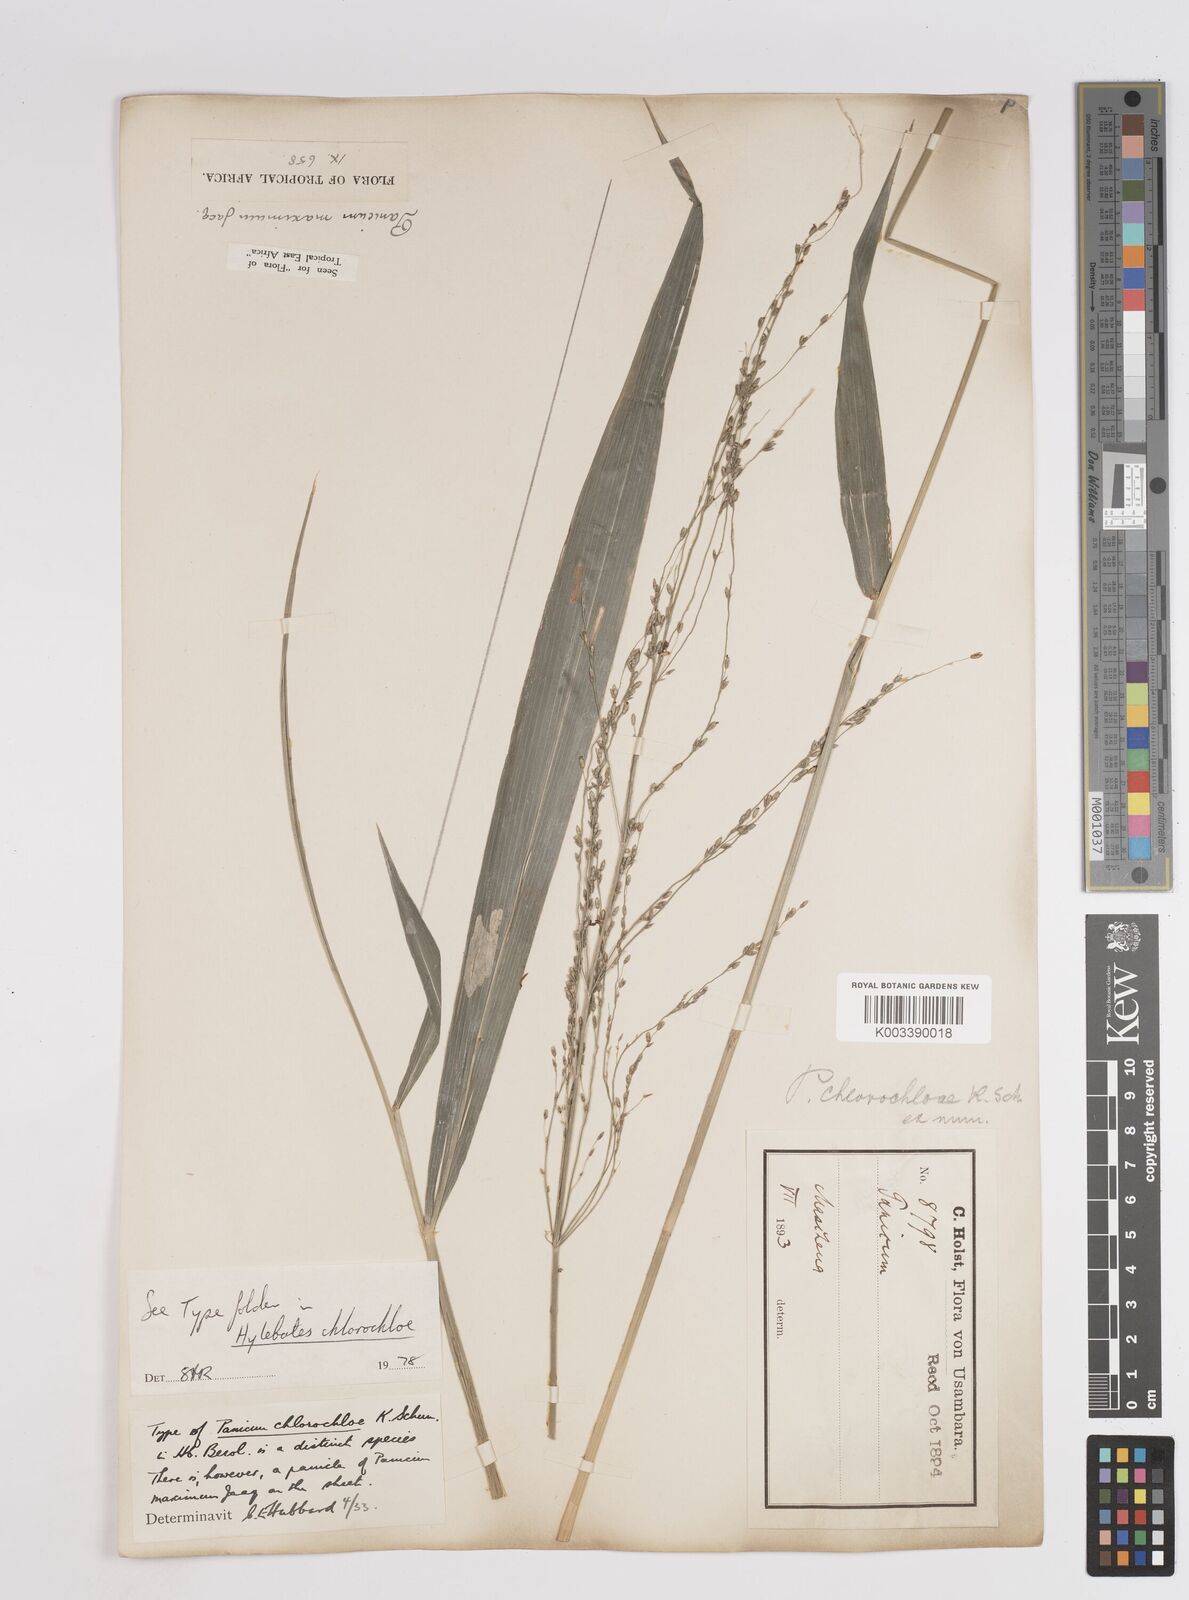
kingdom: Plantae
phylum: Tracheophyta
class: Liliopsida
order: Poales
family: Poaceae
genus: Megathyrsus
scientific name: Megathyrsus maximus
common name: Guineagrass
